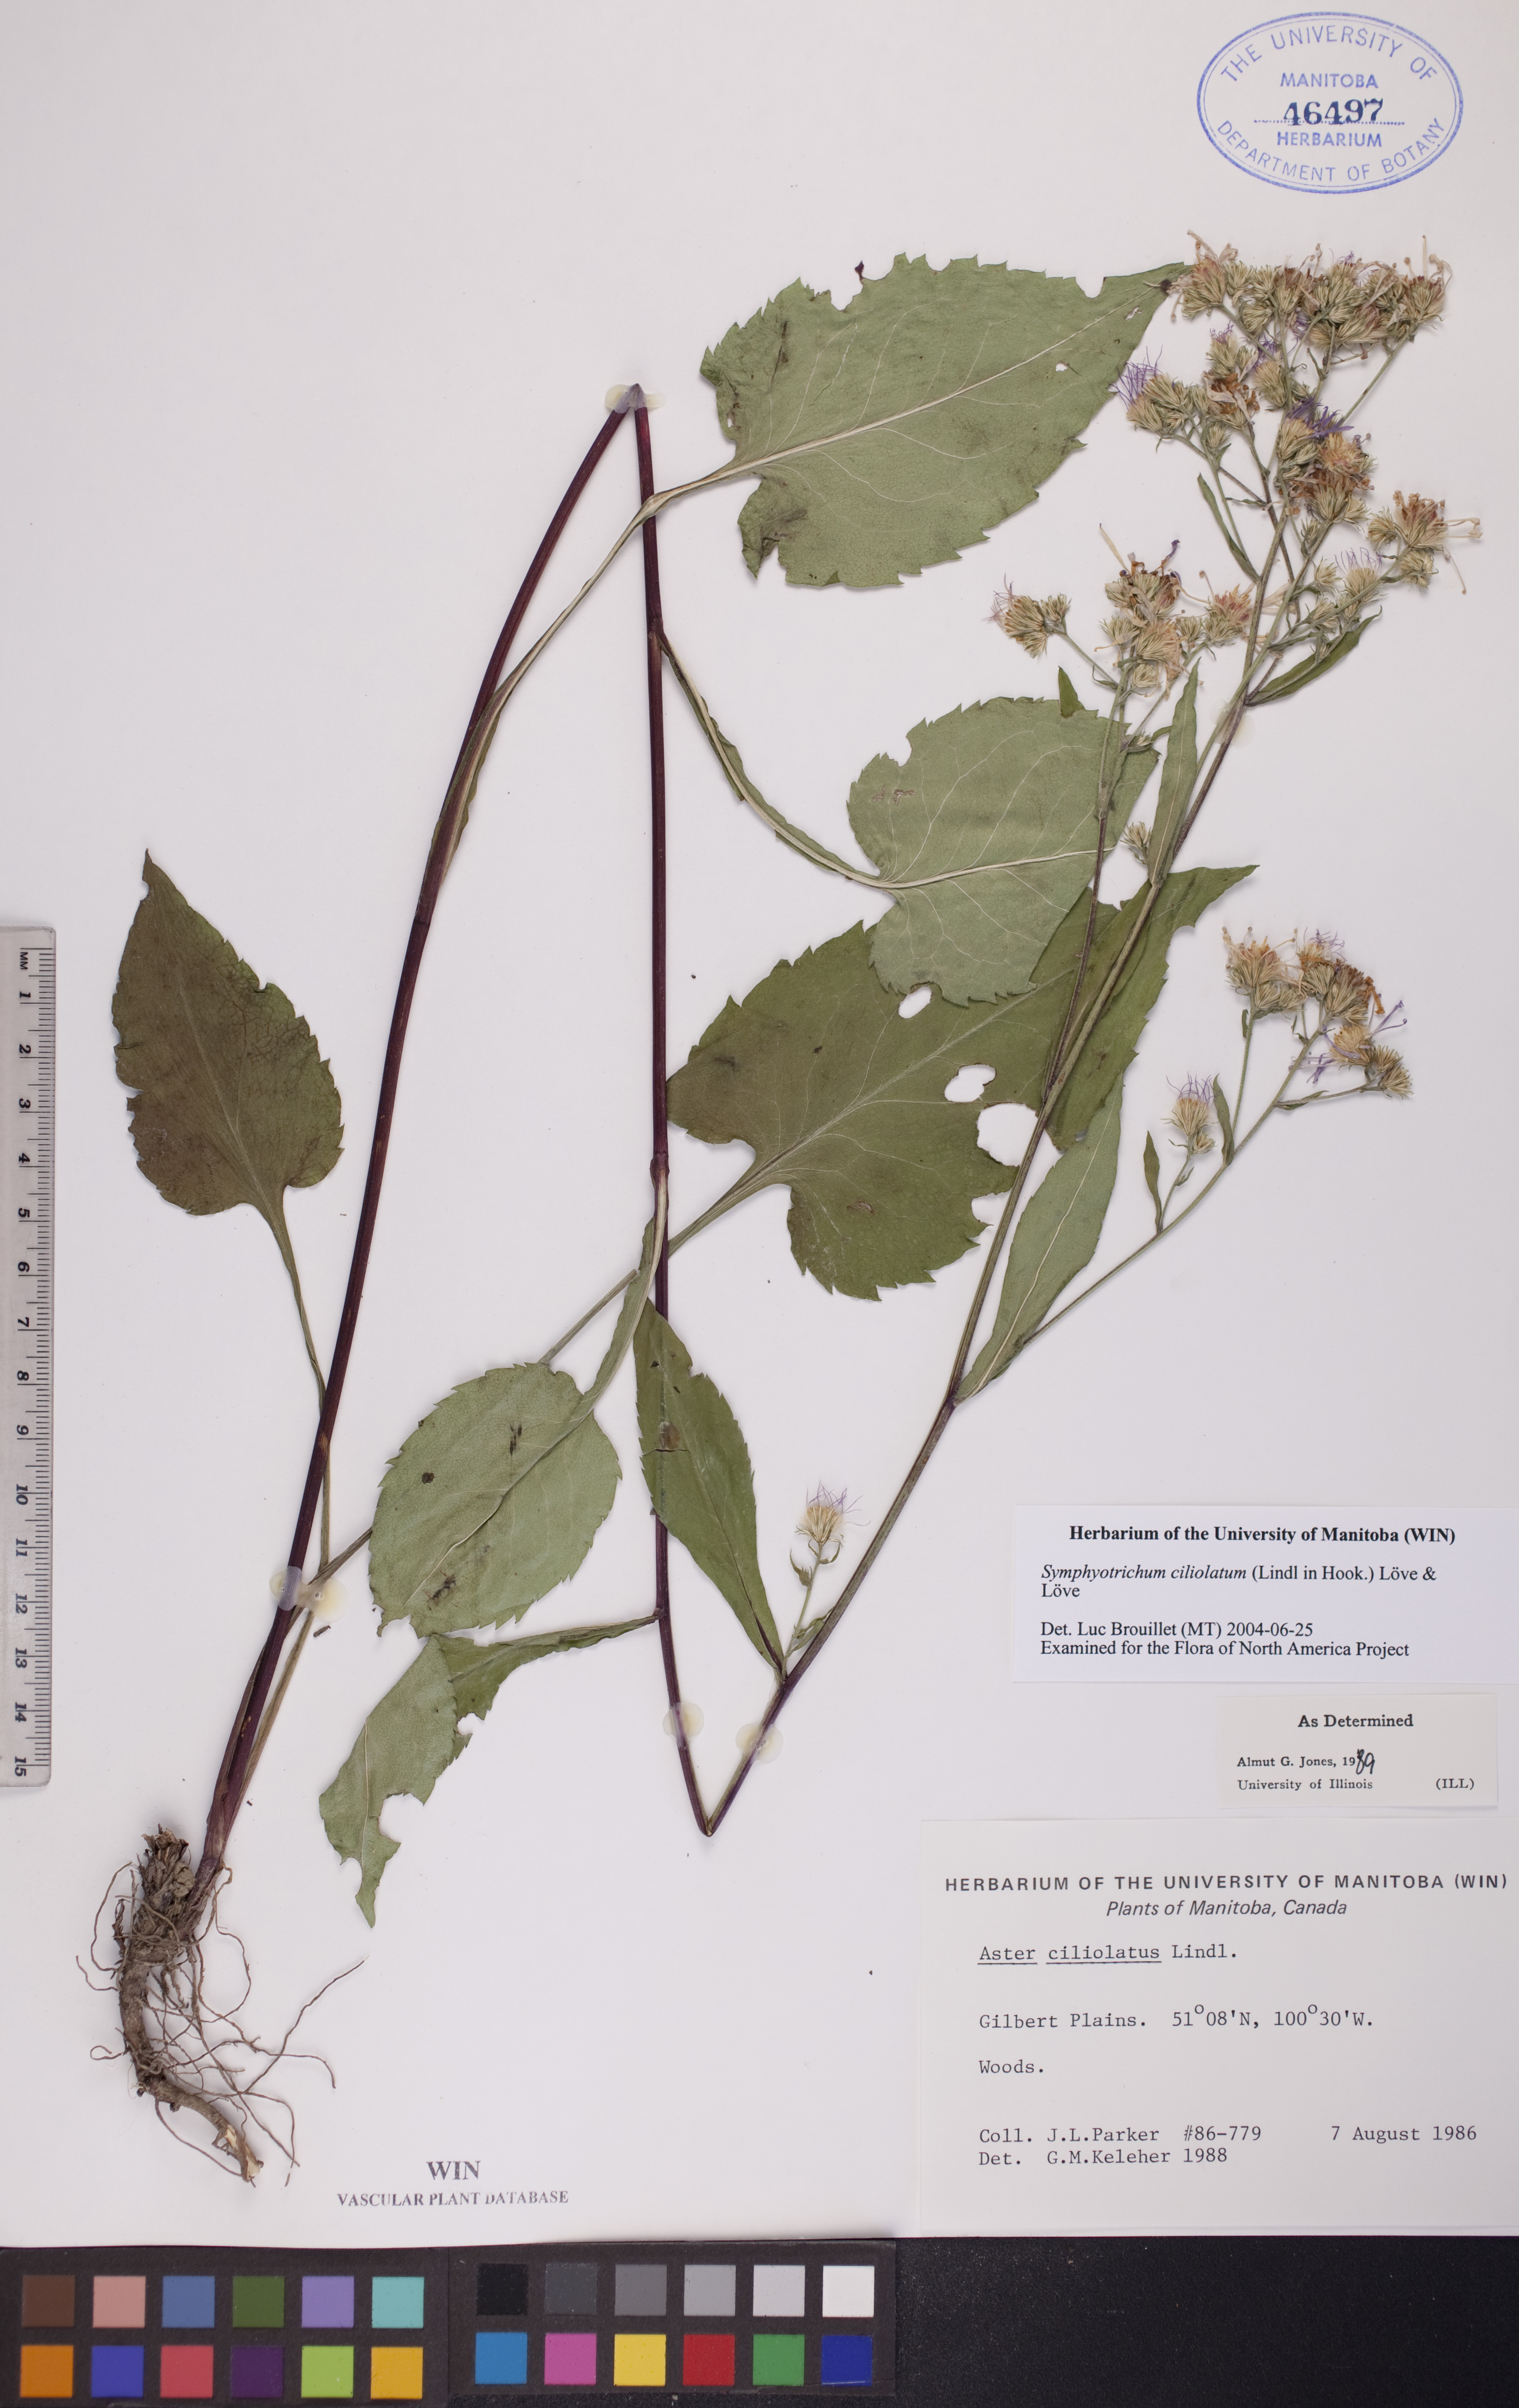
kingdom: Plantae
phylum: Tracheophyta
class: Magnoliopsida
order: Asterales
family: Asteraceae
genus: Symphyotrichum
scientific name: Symphyotrichum ciliolatum
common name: Fringed blue aster
